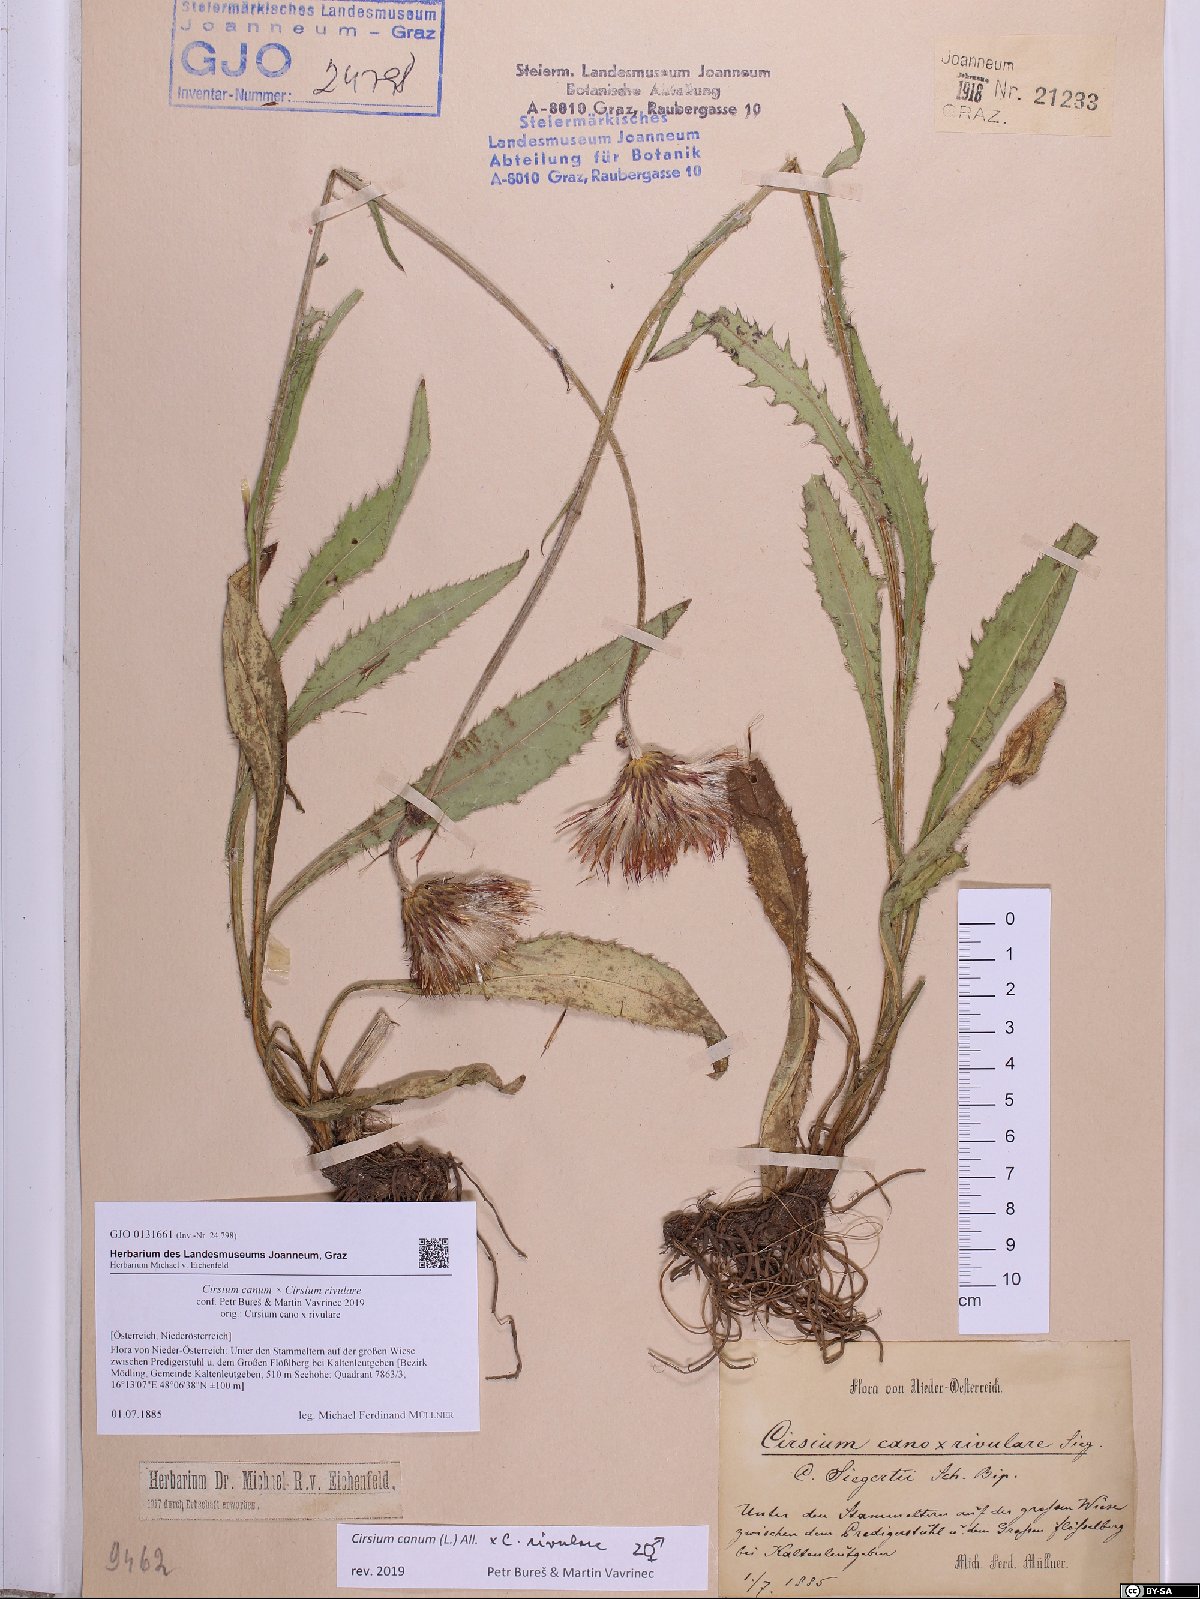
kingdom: Plantae
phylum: Tracheophyta
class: Magnoliopsida
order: Asterales
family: Asteraceae
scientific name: Asteraceae
